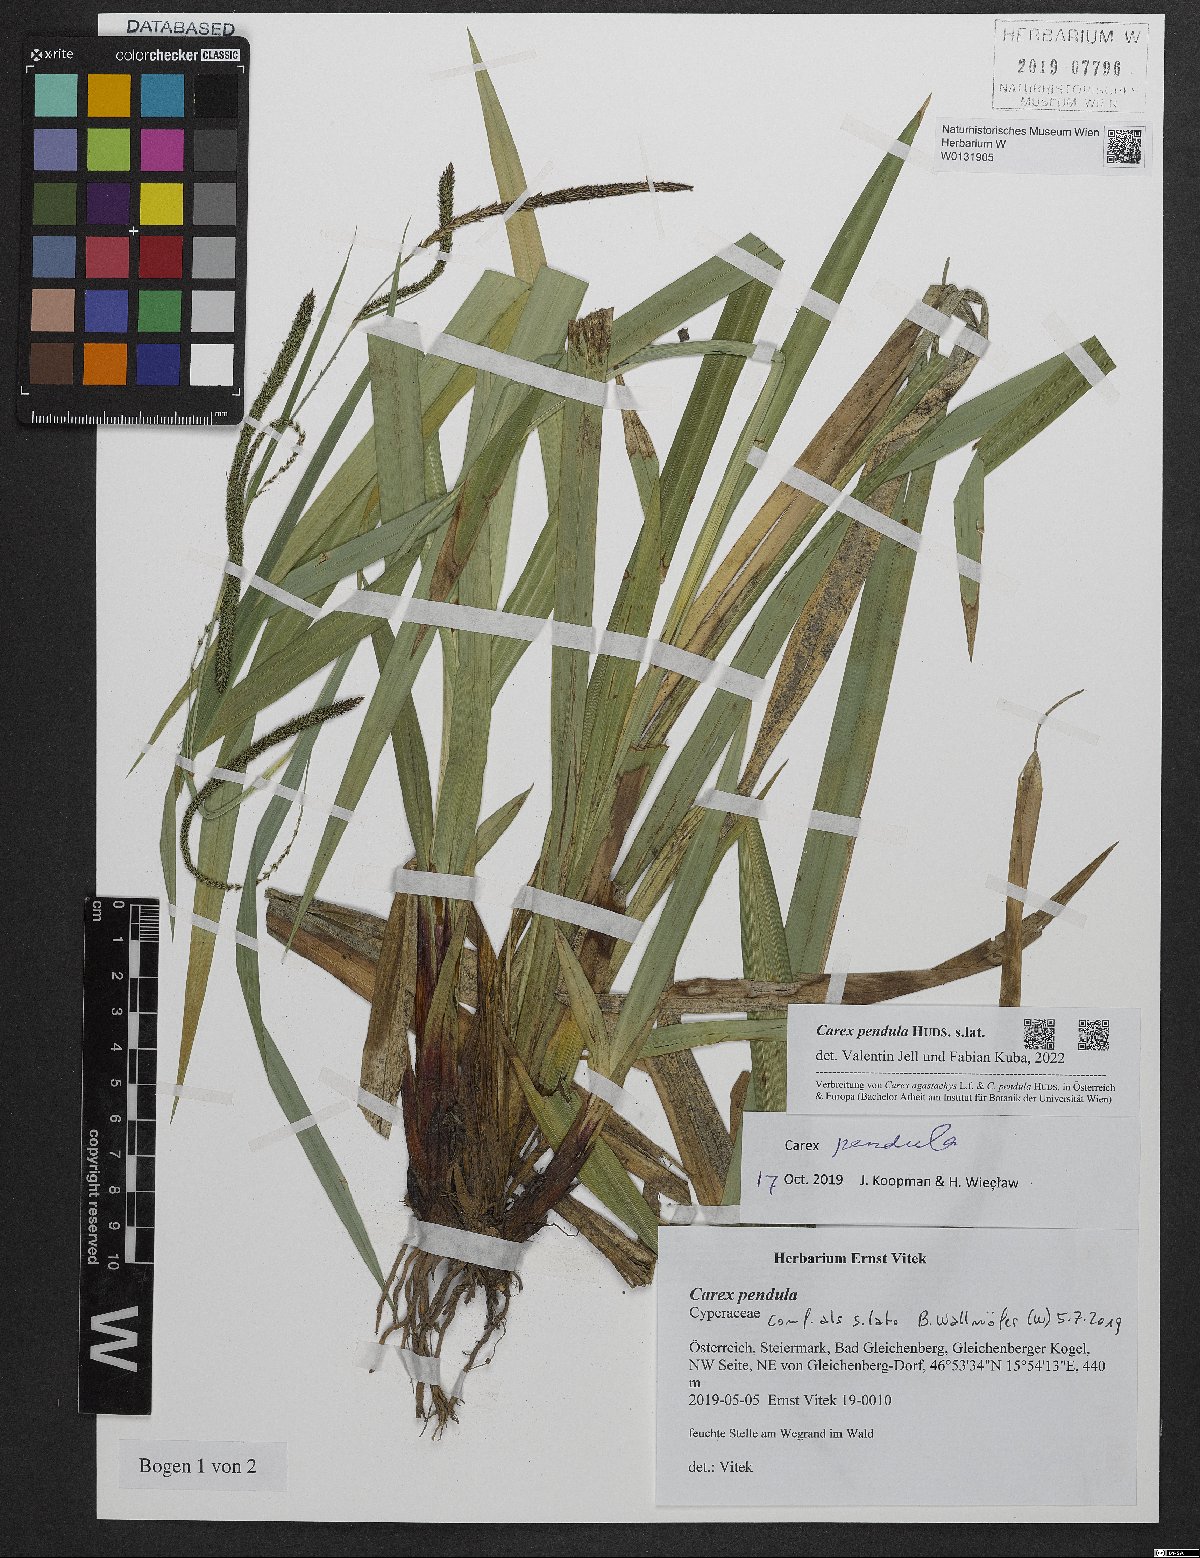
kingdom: Plantae
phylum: Tracheophyta
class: Liliopsida
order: Poales
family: Cyperaceae
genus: Carex
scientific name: Carex pendula
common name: Pendulous sedge
